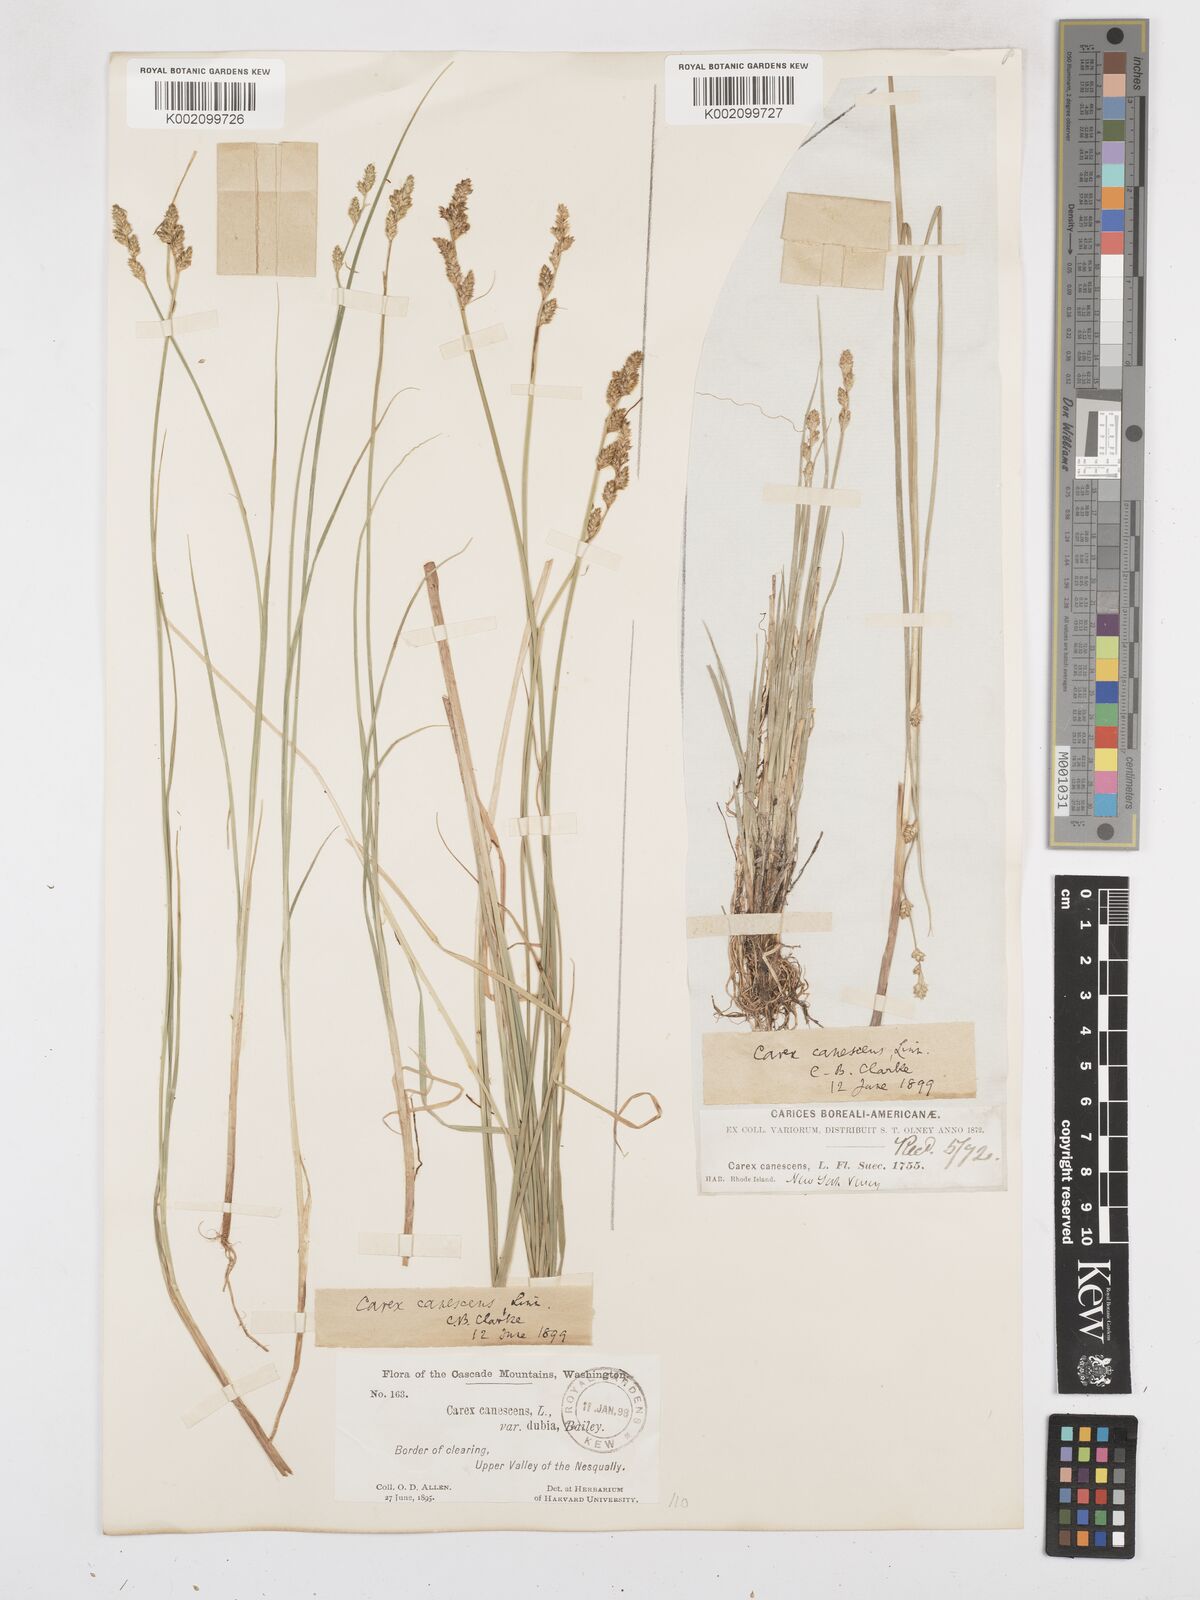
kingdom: Plantae
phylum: Tracheophyta
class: Liliopsida
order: Poales
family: Cyperaceae
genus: Carex
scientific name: Carex praeceptorum
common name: Early sedge
